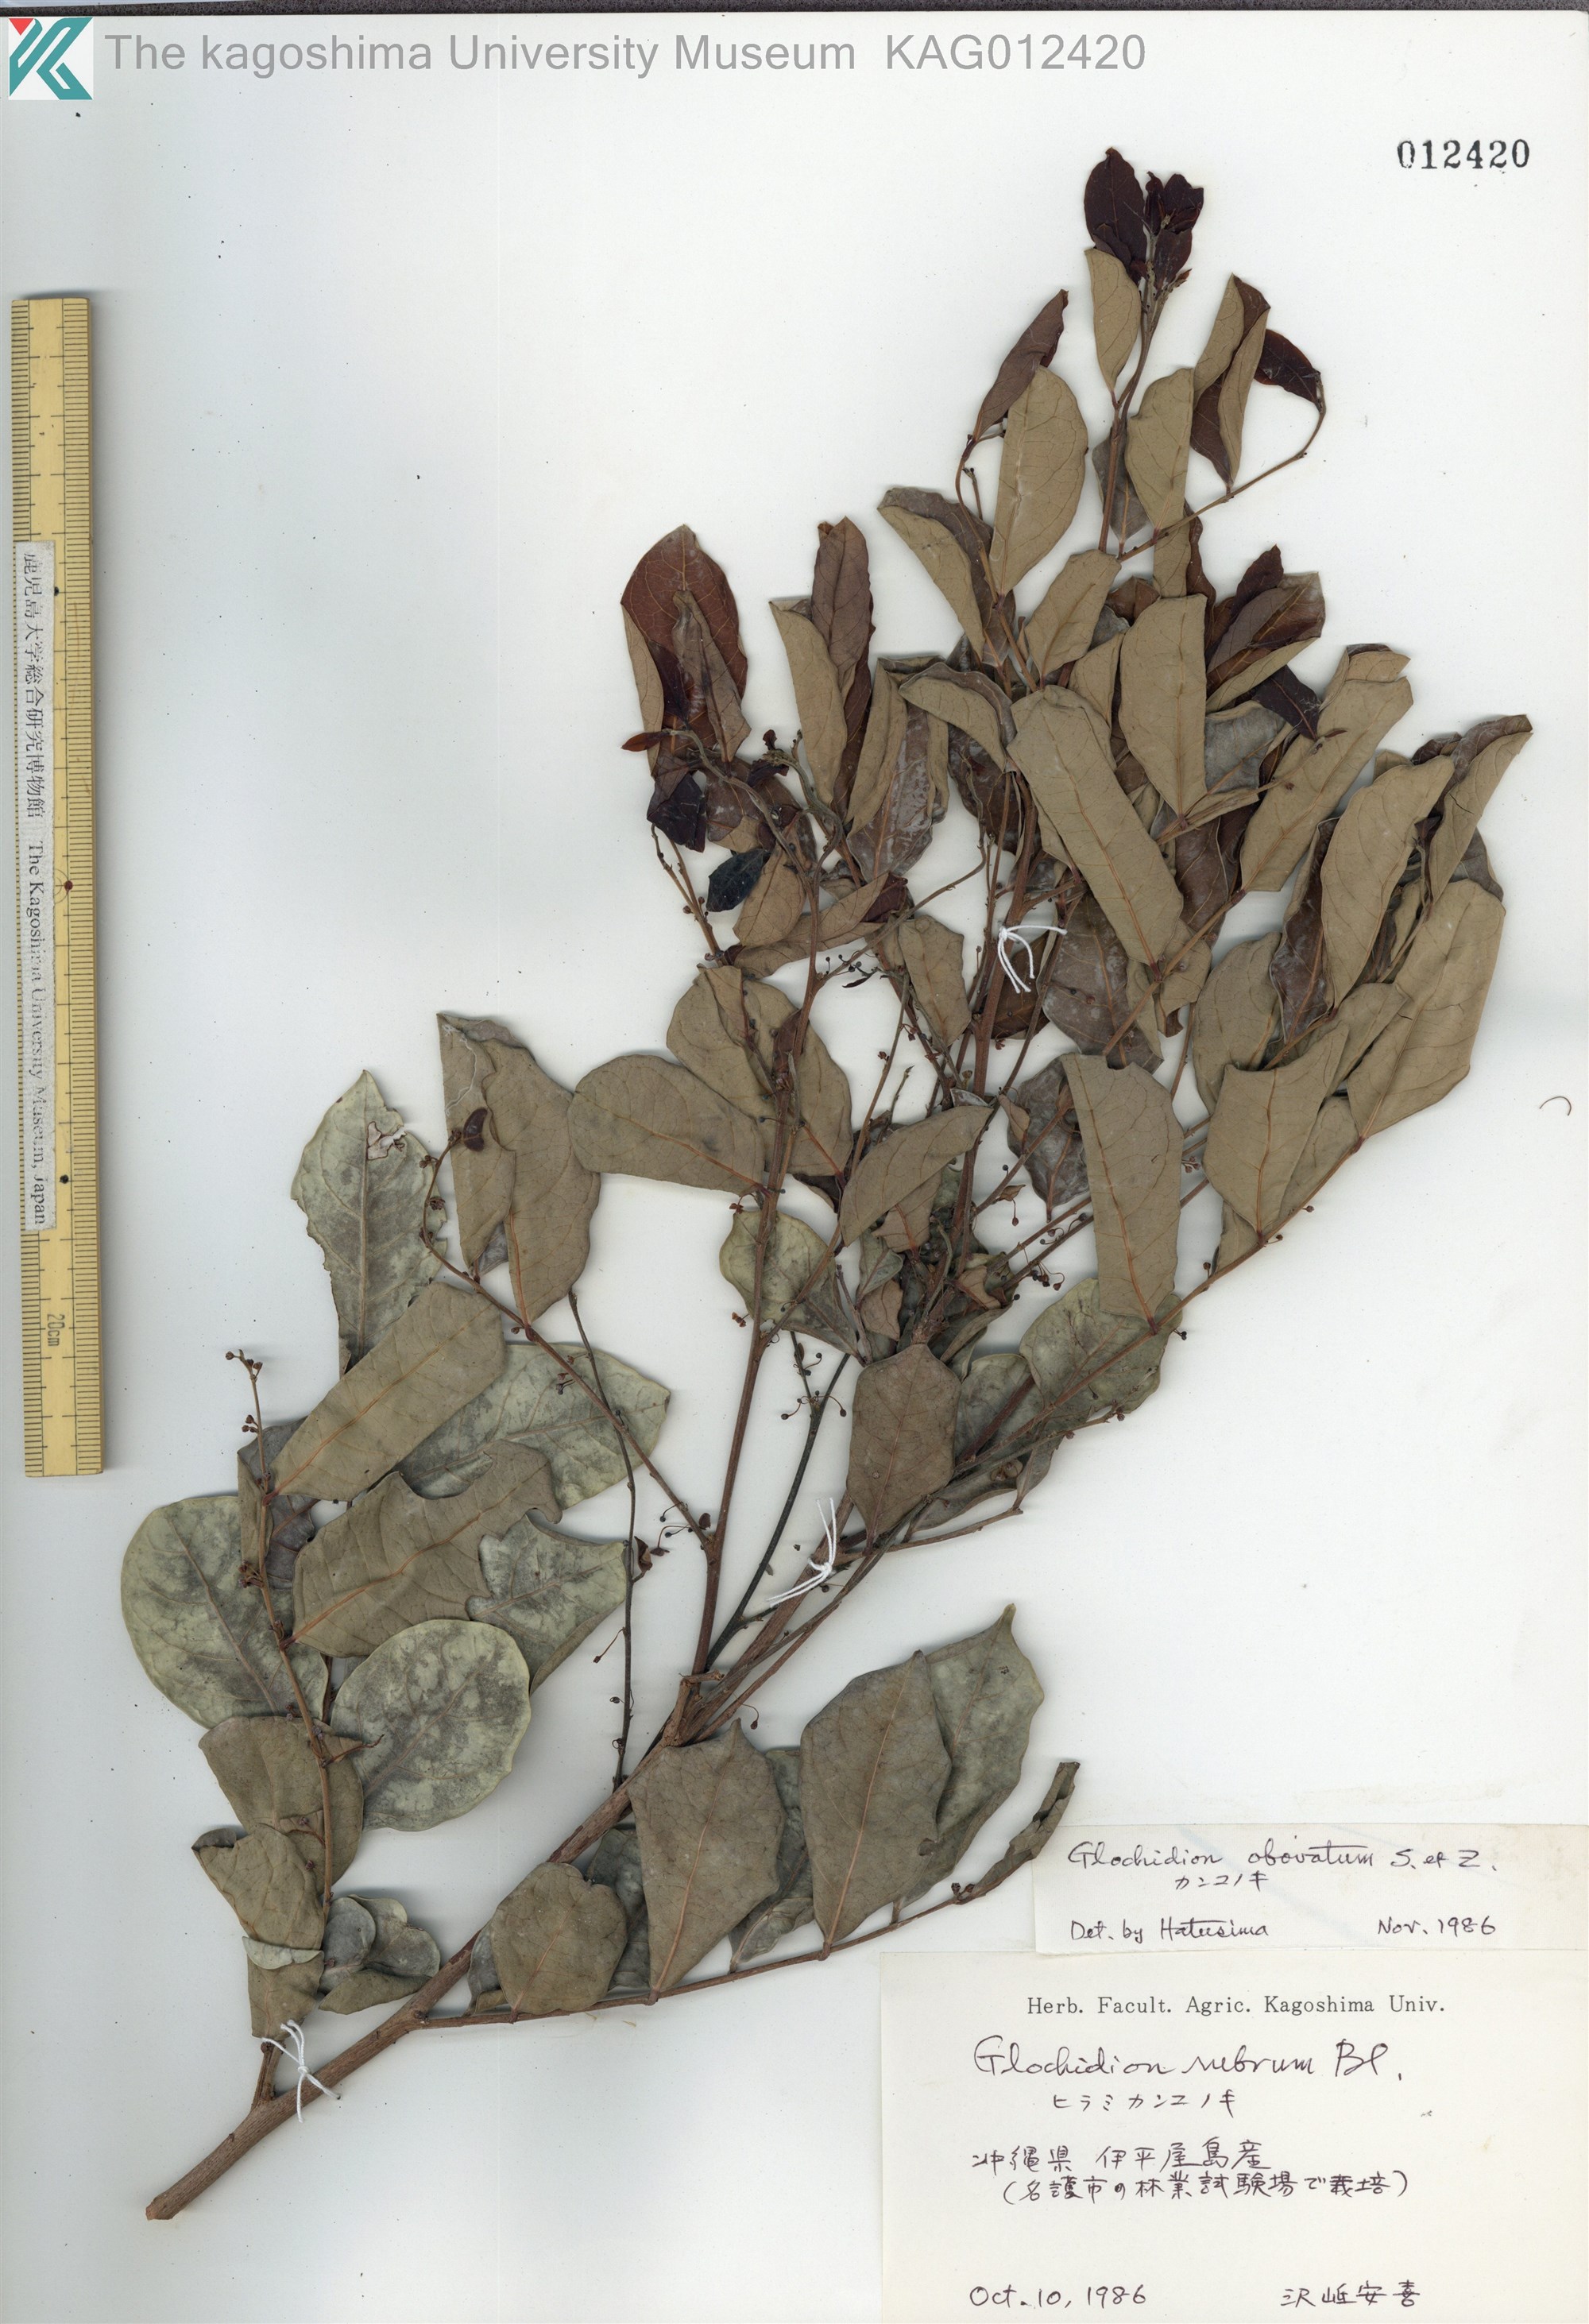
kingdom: Plantae
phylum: Tracheophyta
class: Magnoliopsida
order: Malpighiales
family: Phyllanthaceae
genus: Glochidion
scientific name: Glochidion obovatum
